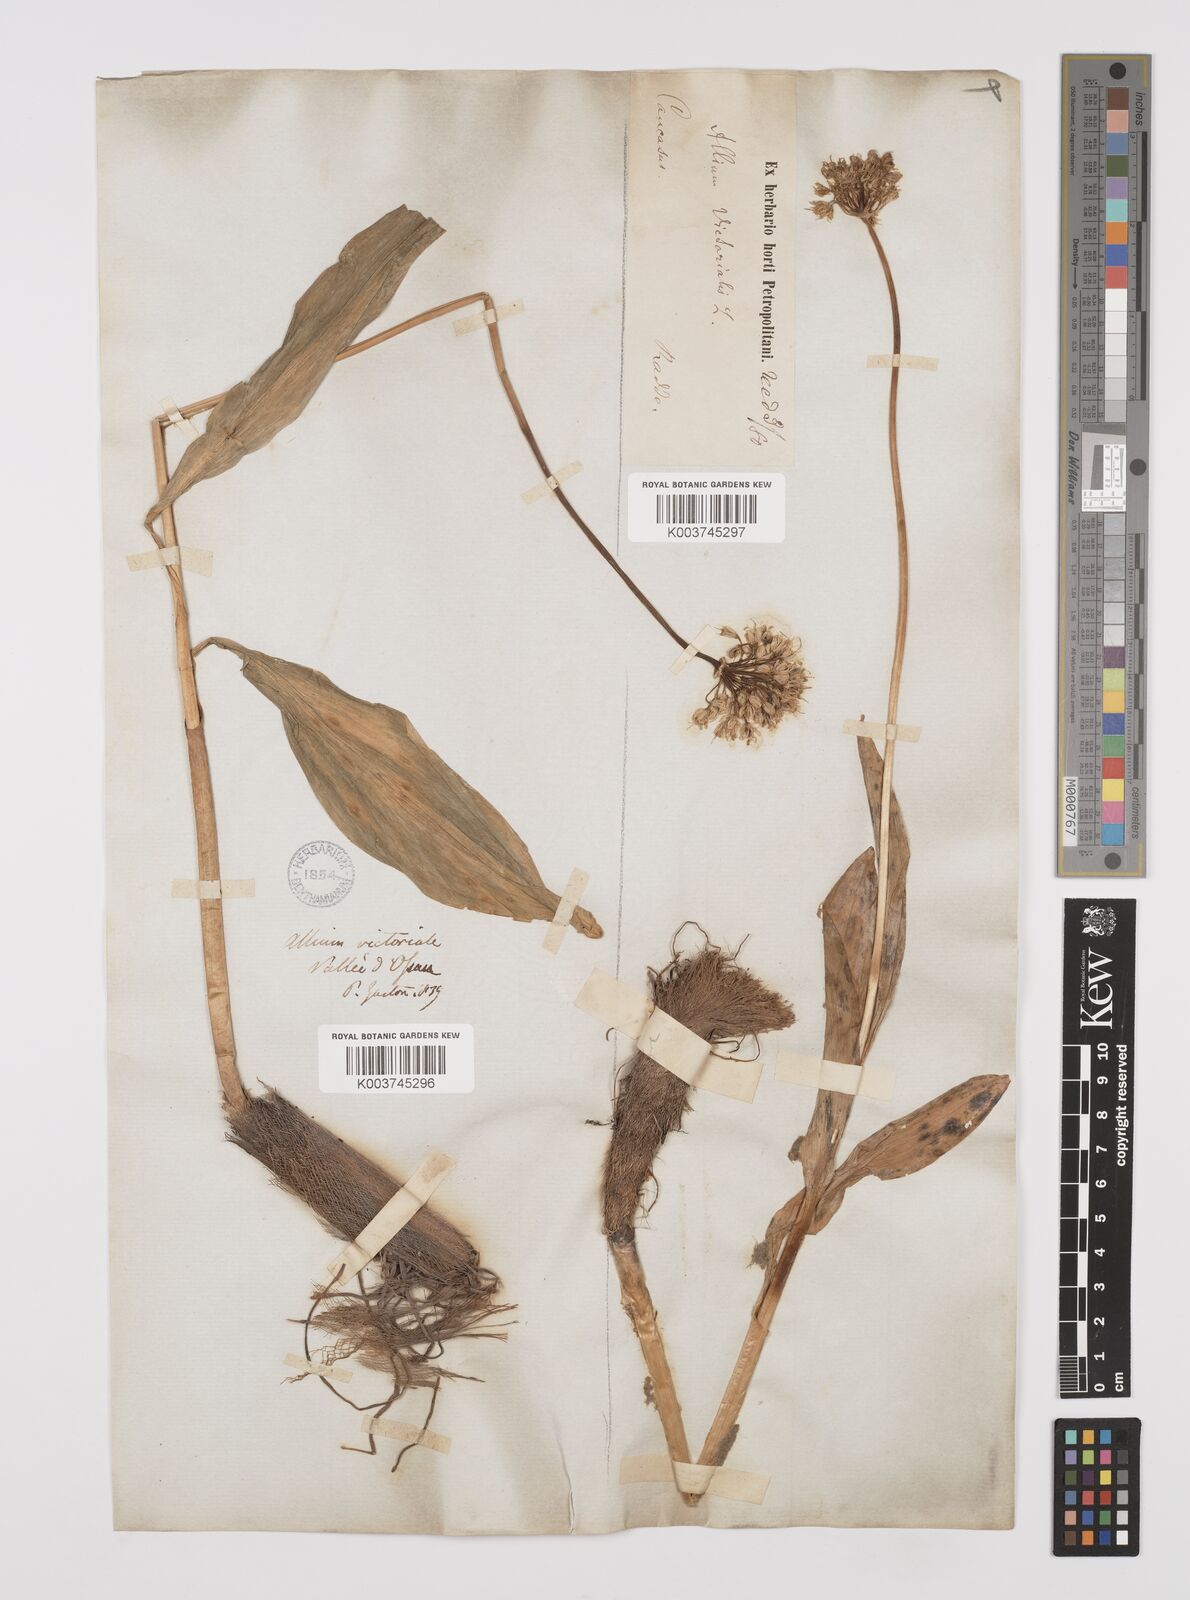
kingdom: Plantae
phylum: Tracheophyta
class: Liliopsida
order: Asparagales
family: Amaryllidaceae
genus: Allium
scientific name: Allium victorialis
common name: Alpine leek
